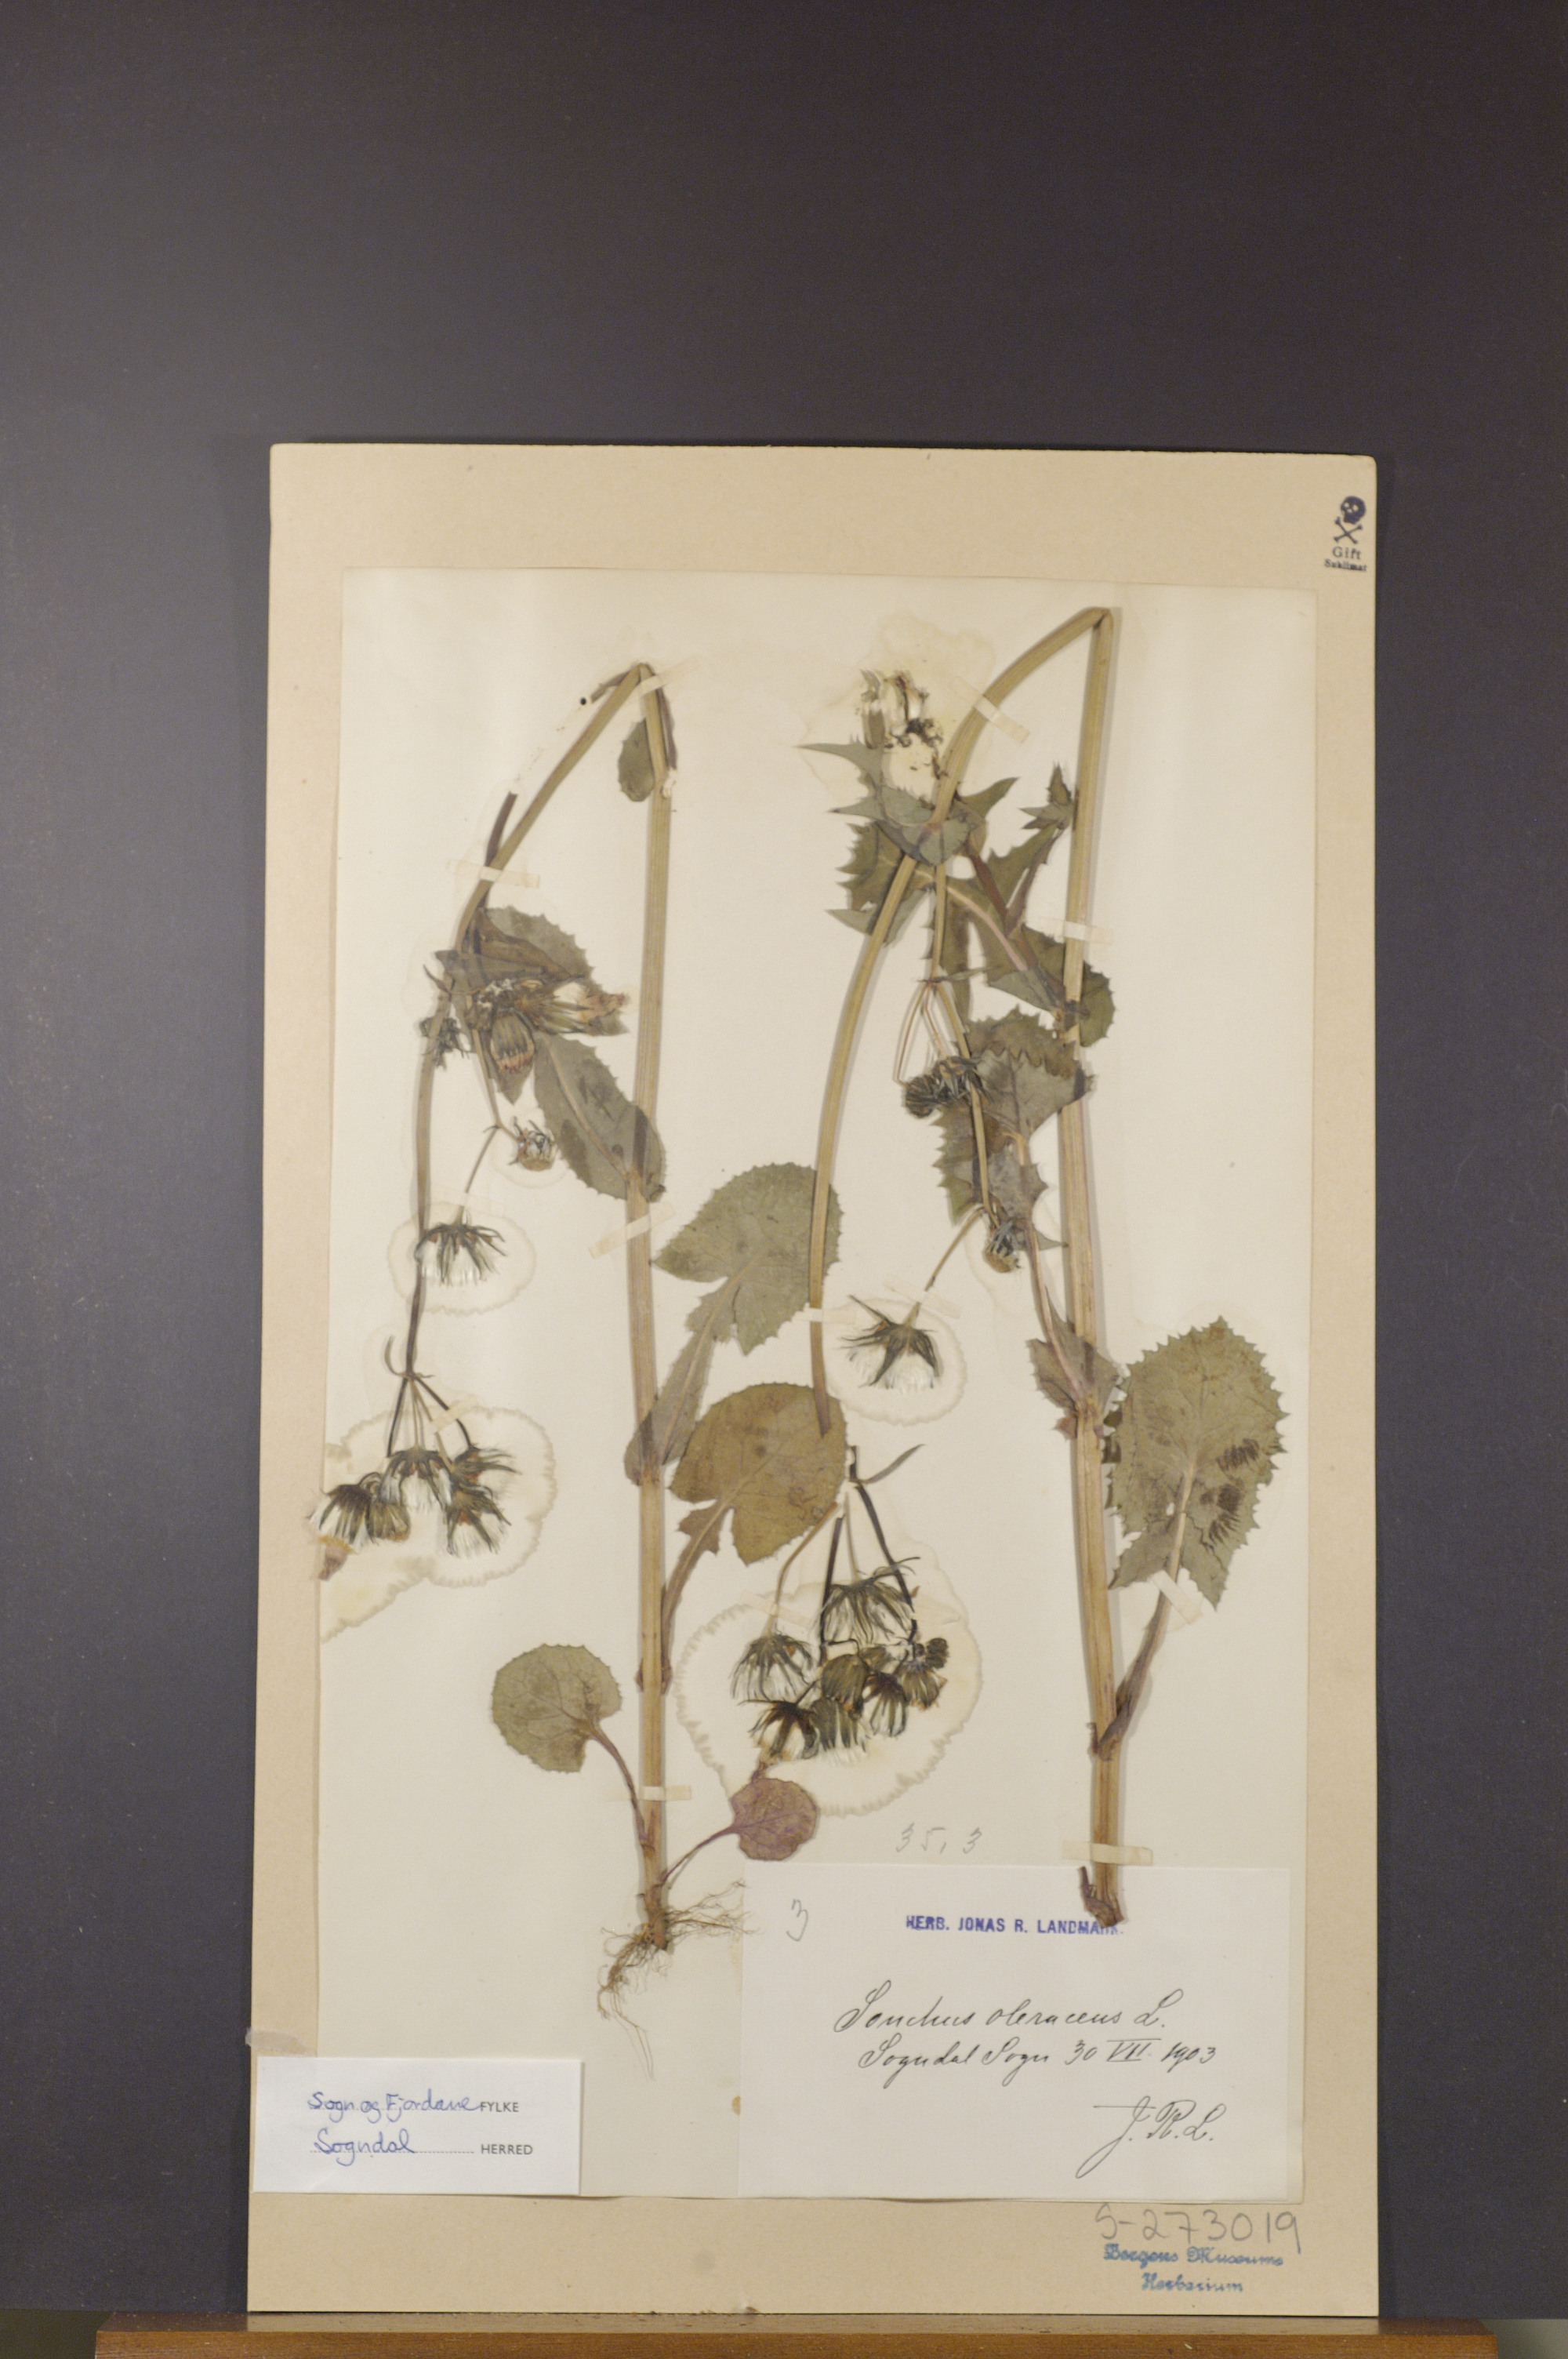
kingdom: Plantae
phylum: Tracheophyta
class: Magnoliopsida
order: Asterales
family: Asteraceae
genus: Sonchus
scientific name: Sonchus oleraceus
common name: Common sowthistle
